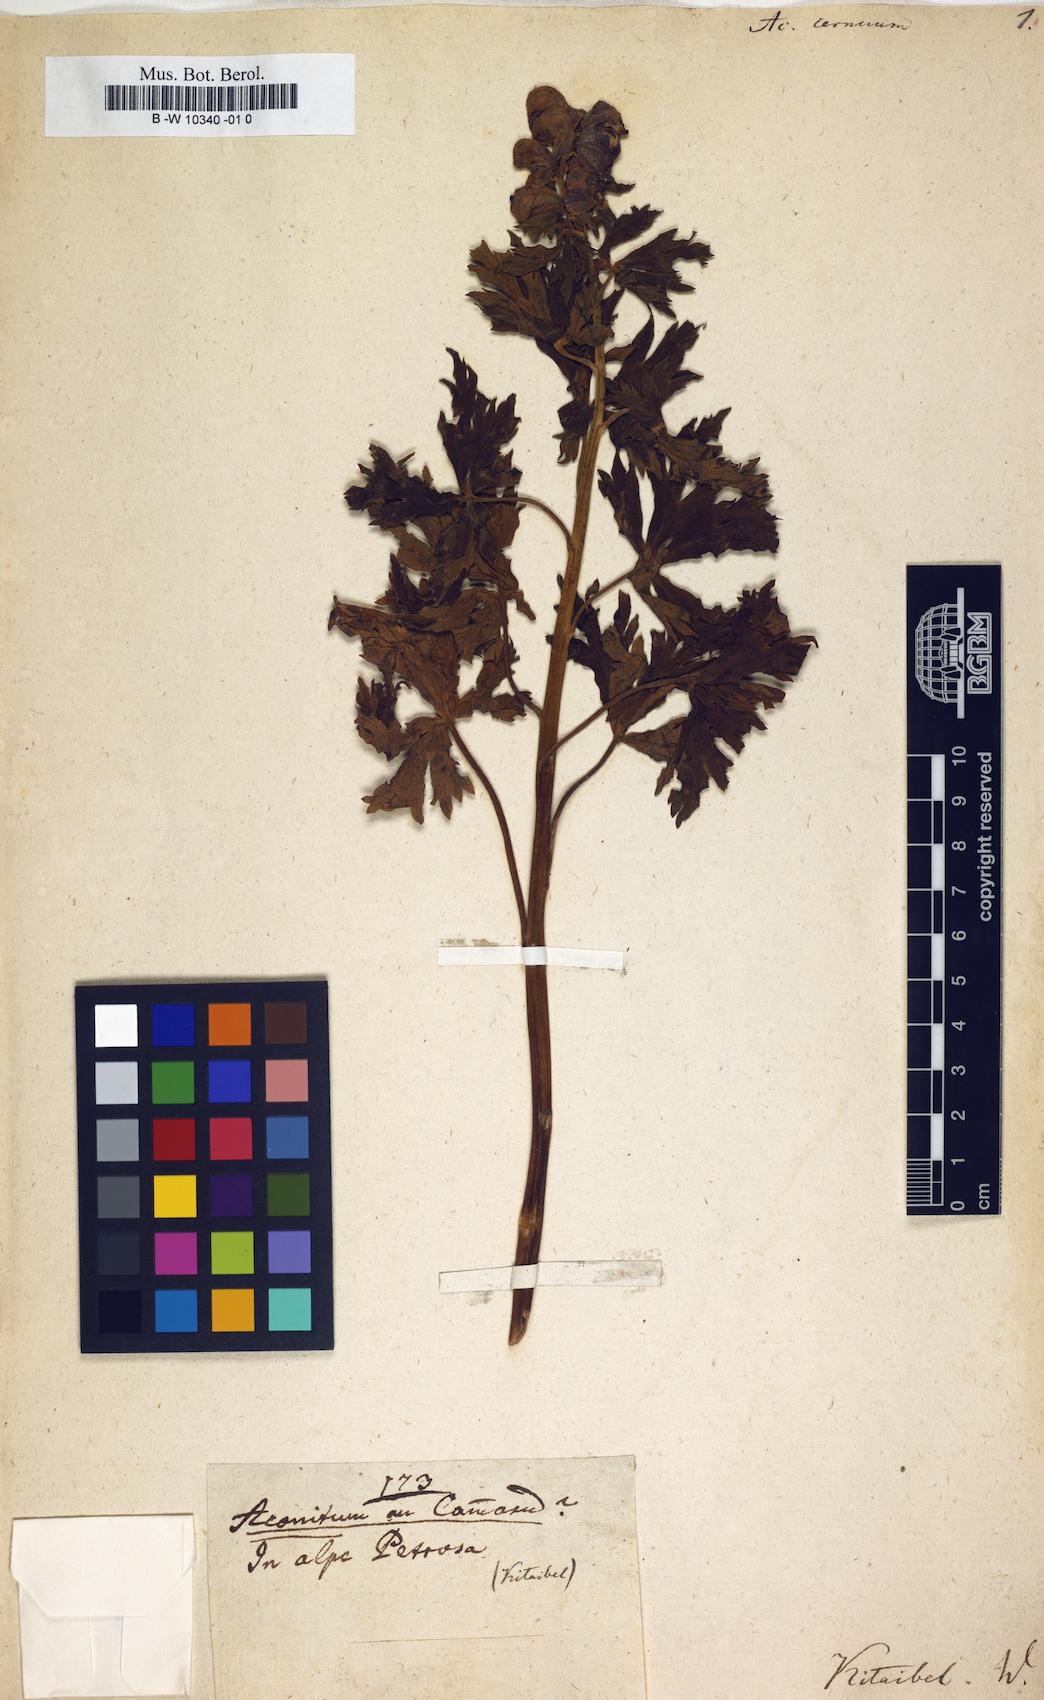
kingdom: Plantae
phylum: Tracheophyta
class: Magnoliopsida
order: Ranunculales
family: Ranunculaceae
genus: Aconitum
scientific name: Aconitum degenii
